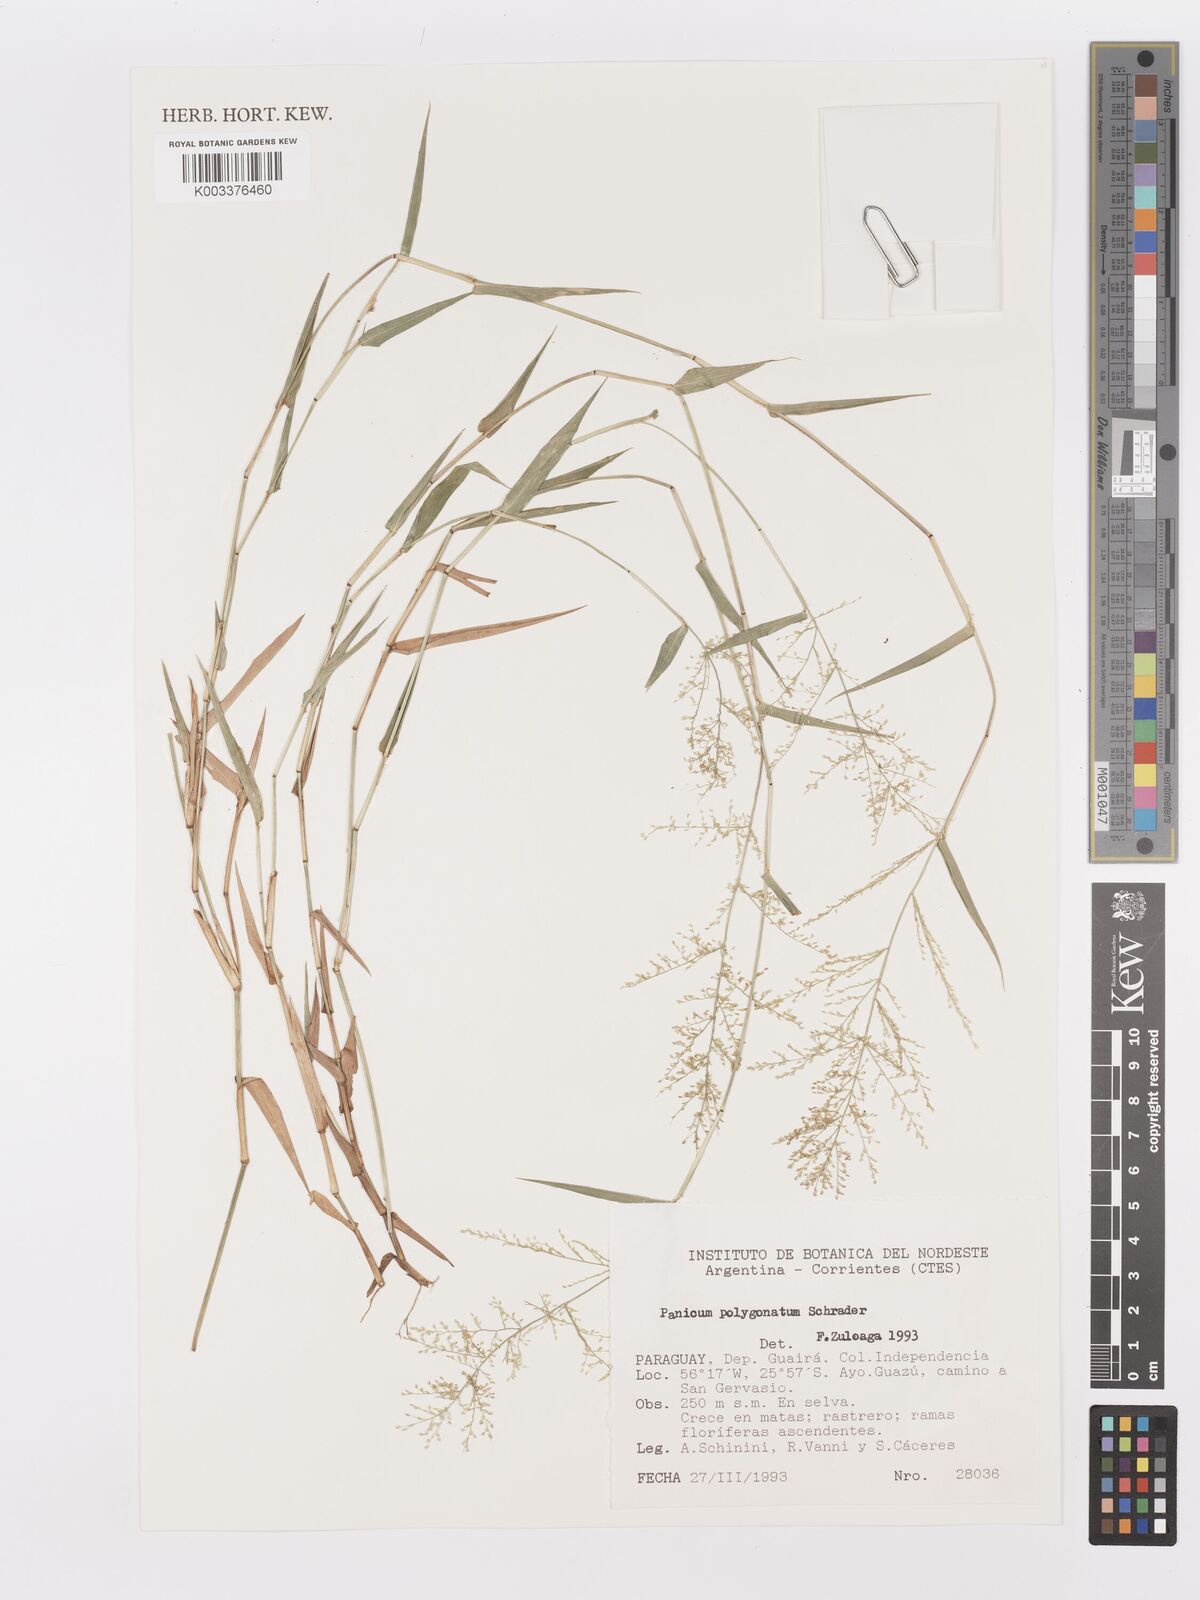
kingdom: Plantae
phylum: Tracheophyta
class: Liliopsida
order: Poales
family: Poaceae
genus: Rugoloa
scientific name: Rugoloa polygonata
